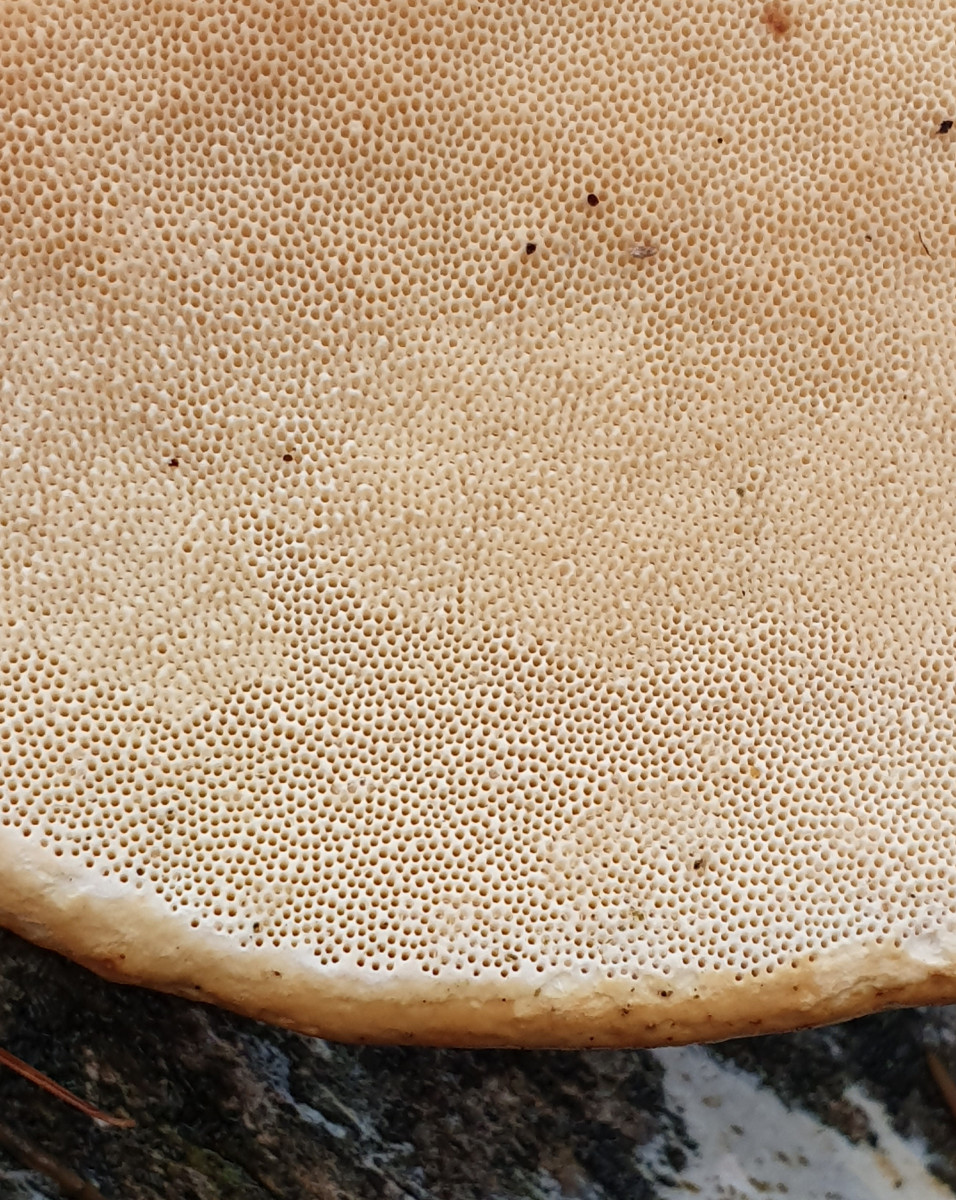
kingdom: Fungi
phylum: Basidiomycota
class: Agaricomycetes
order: Polyporales
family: Fomitopsidaceae
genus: Fomitopsis
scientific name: Fomitopsis pinicola
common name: randbæltet hovporesvamp
